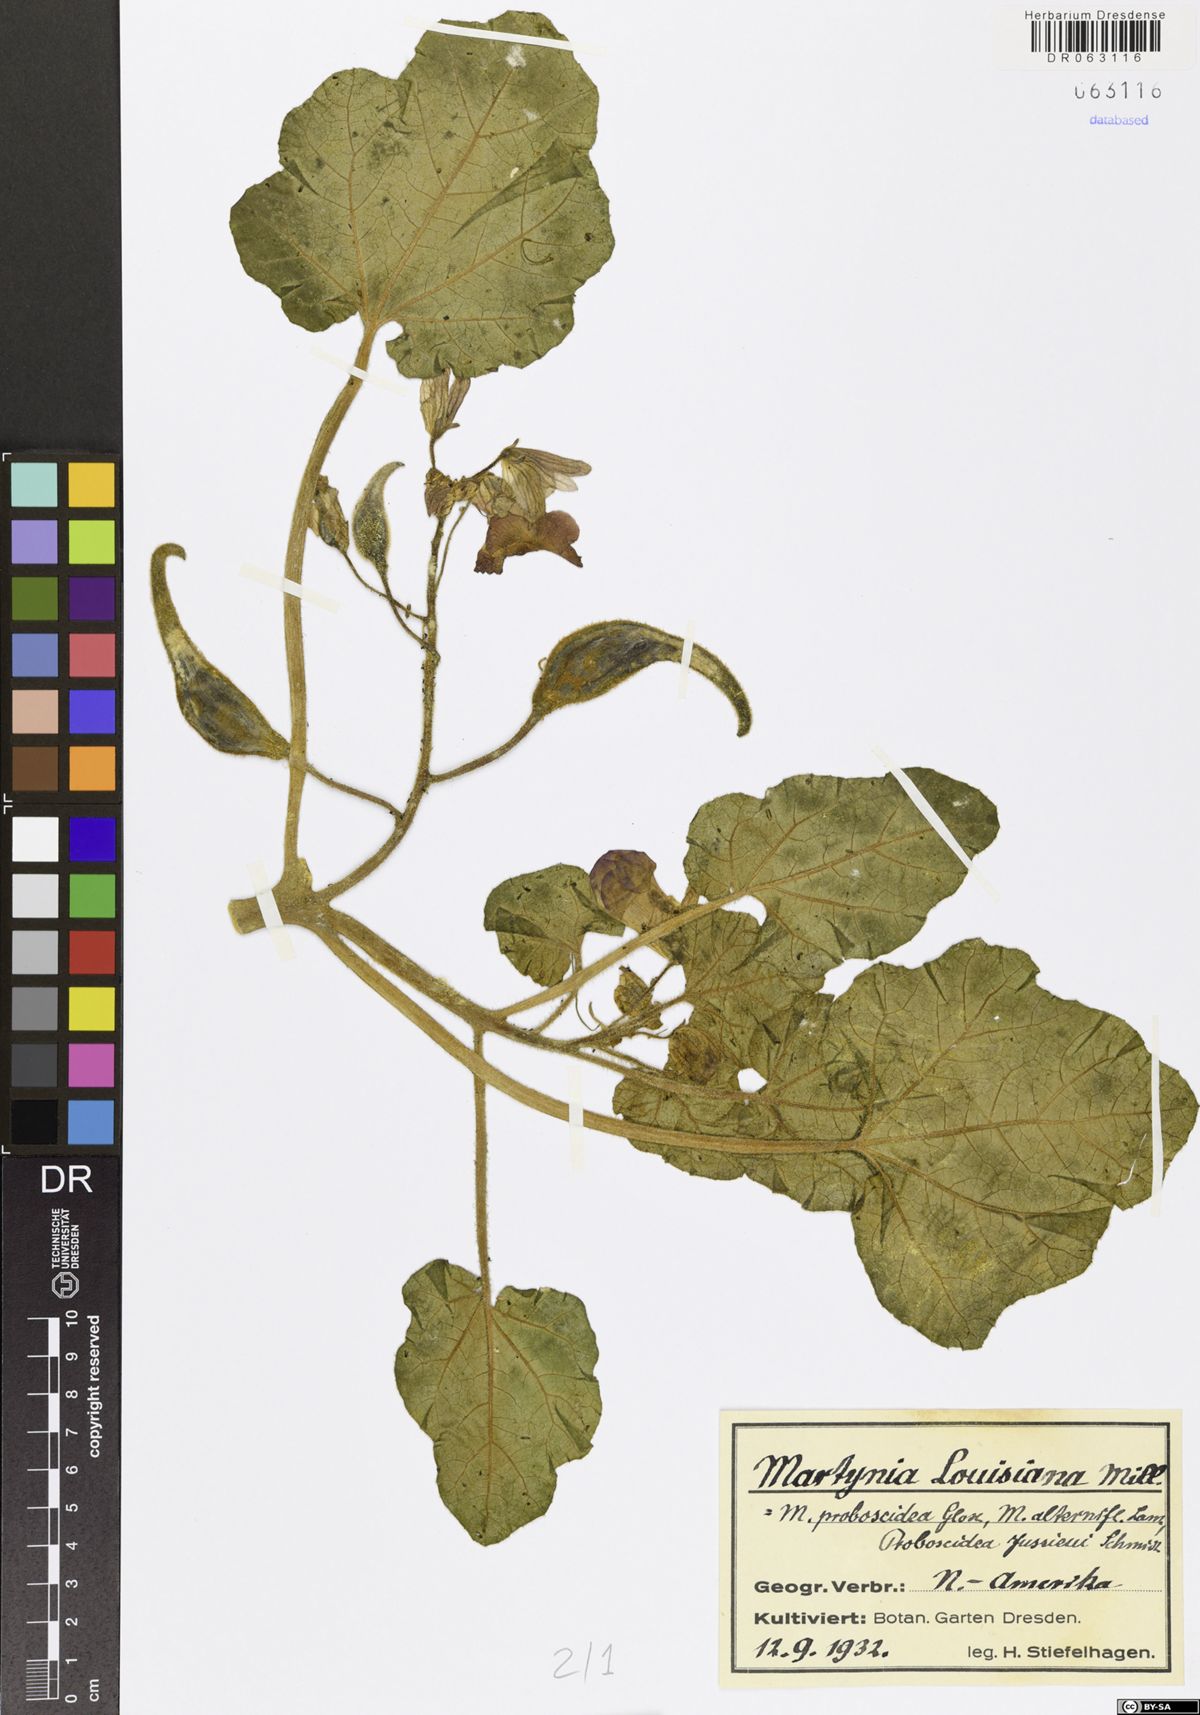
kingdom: Plantae
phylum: Tracheophyta
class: Magnoliopsida
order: Lamiales
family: Martyniaceae
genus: Proboscidea
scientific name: Proboscidea louisianica
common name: Elephant tusks
